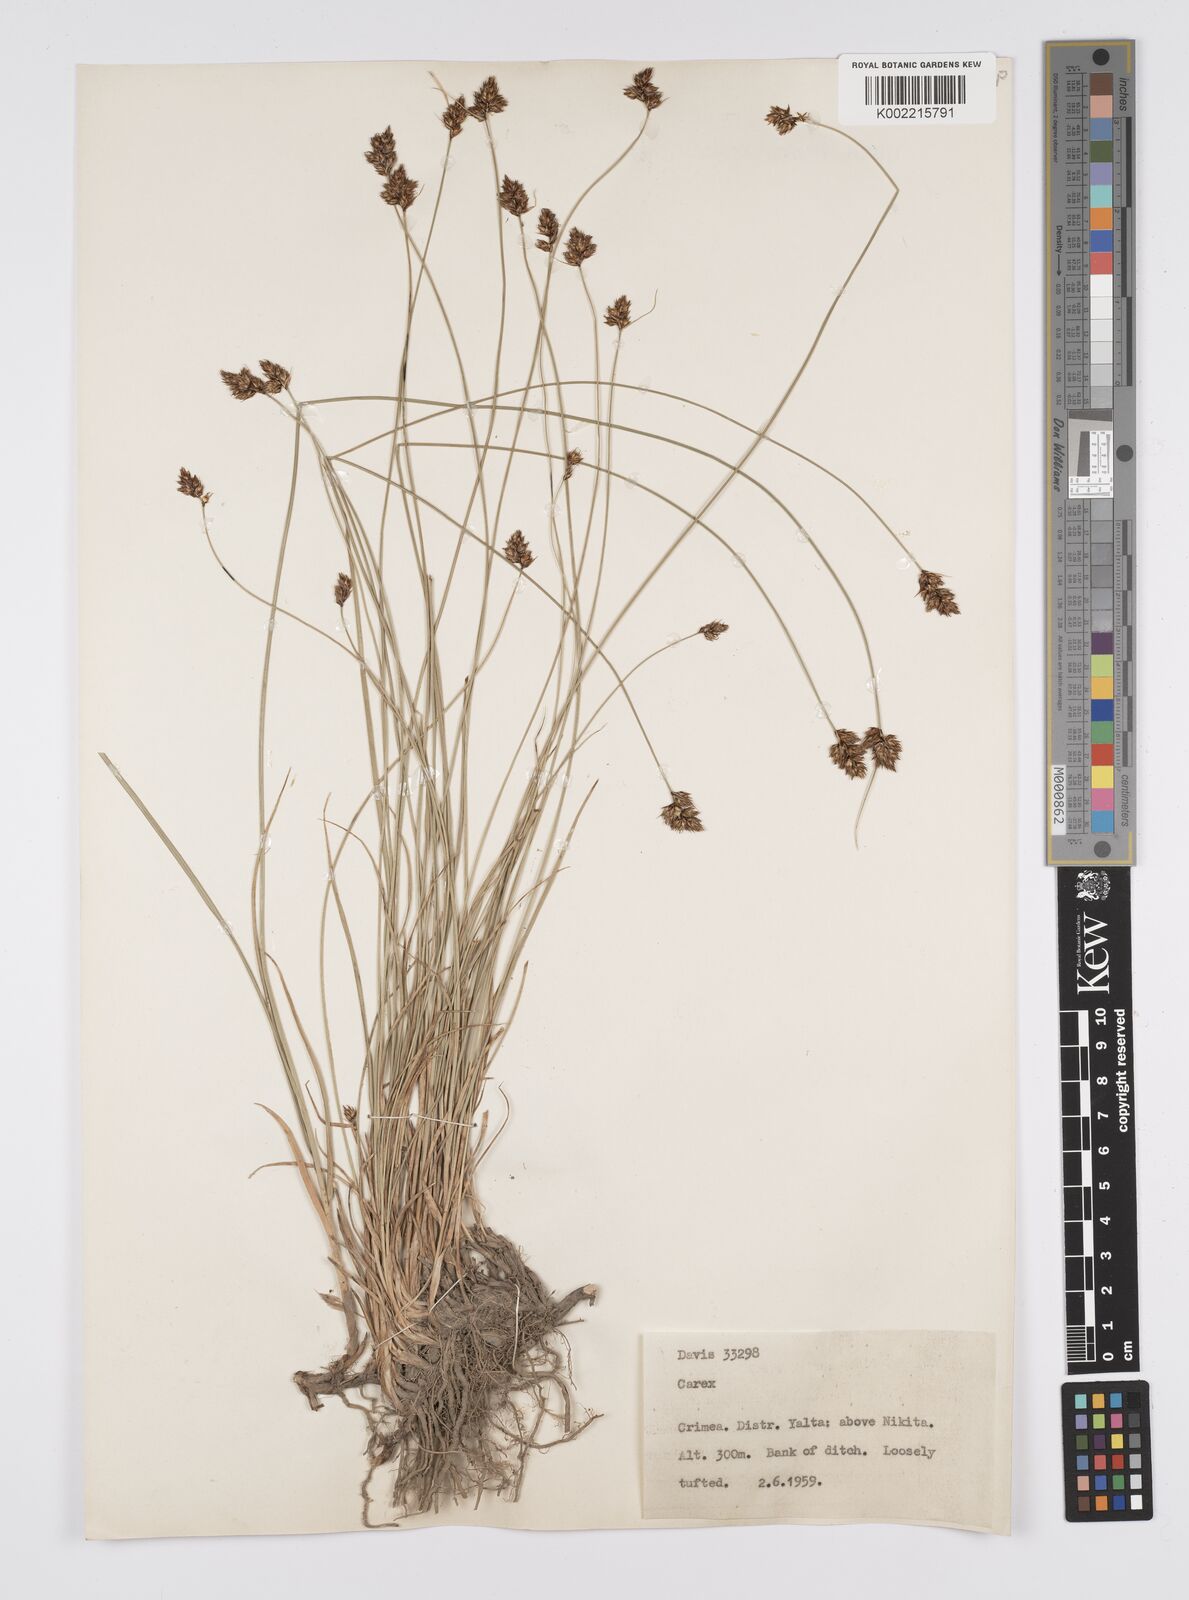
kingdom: Plantae
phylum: Tracheophyta
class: Liliopsida
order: Poales
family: Cyperaceae
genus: Carex
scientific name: Carex
